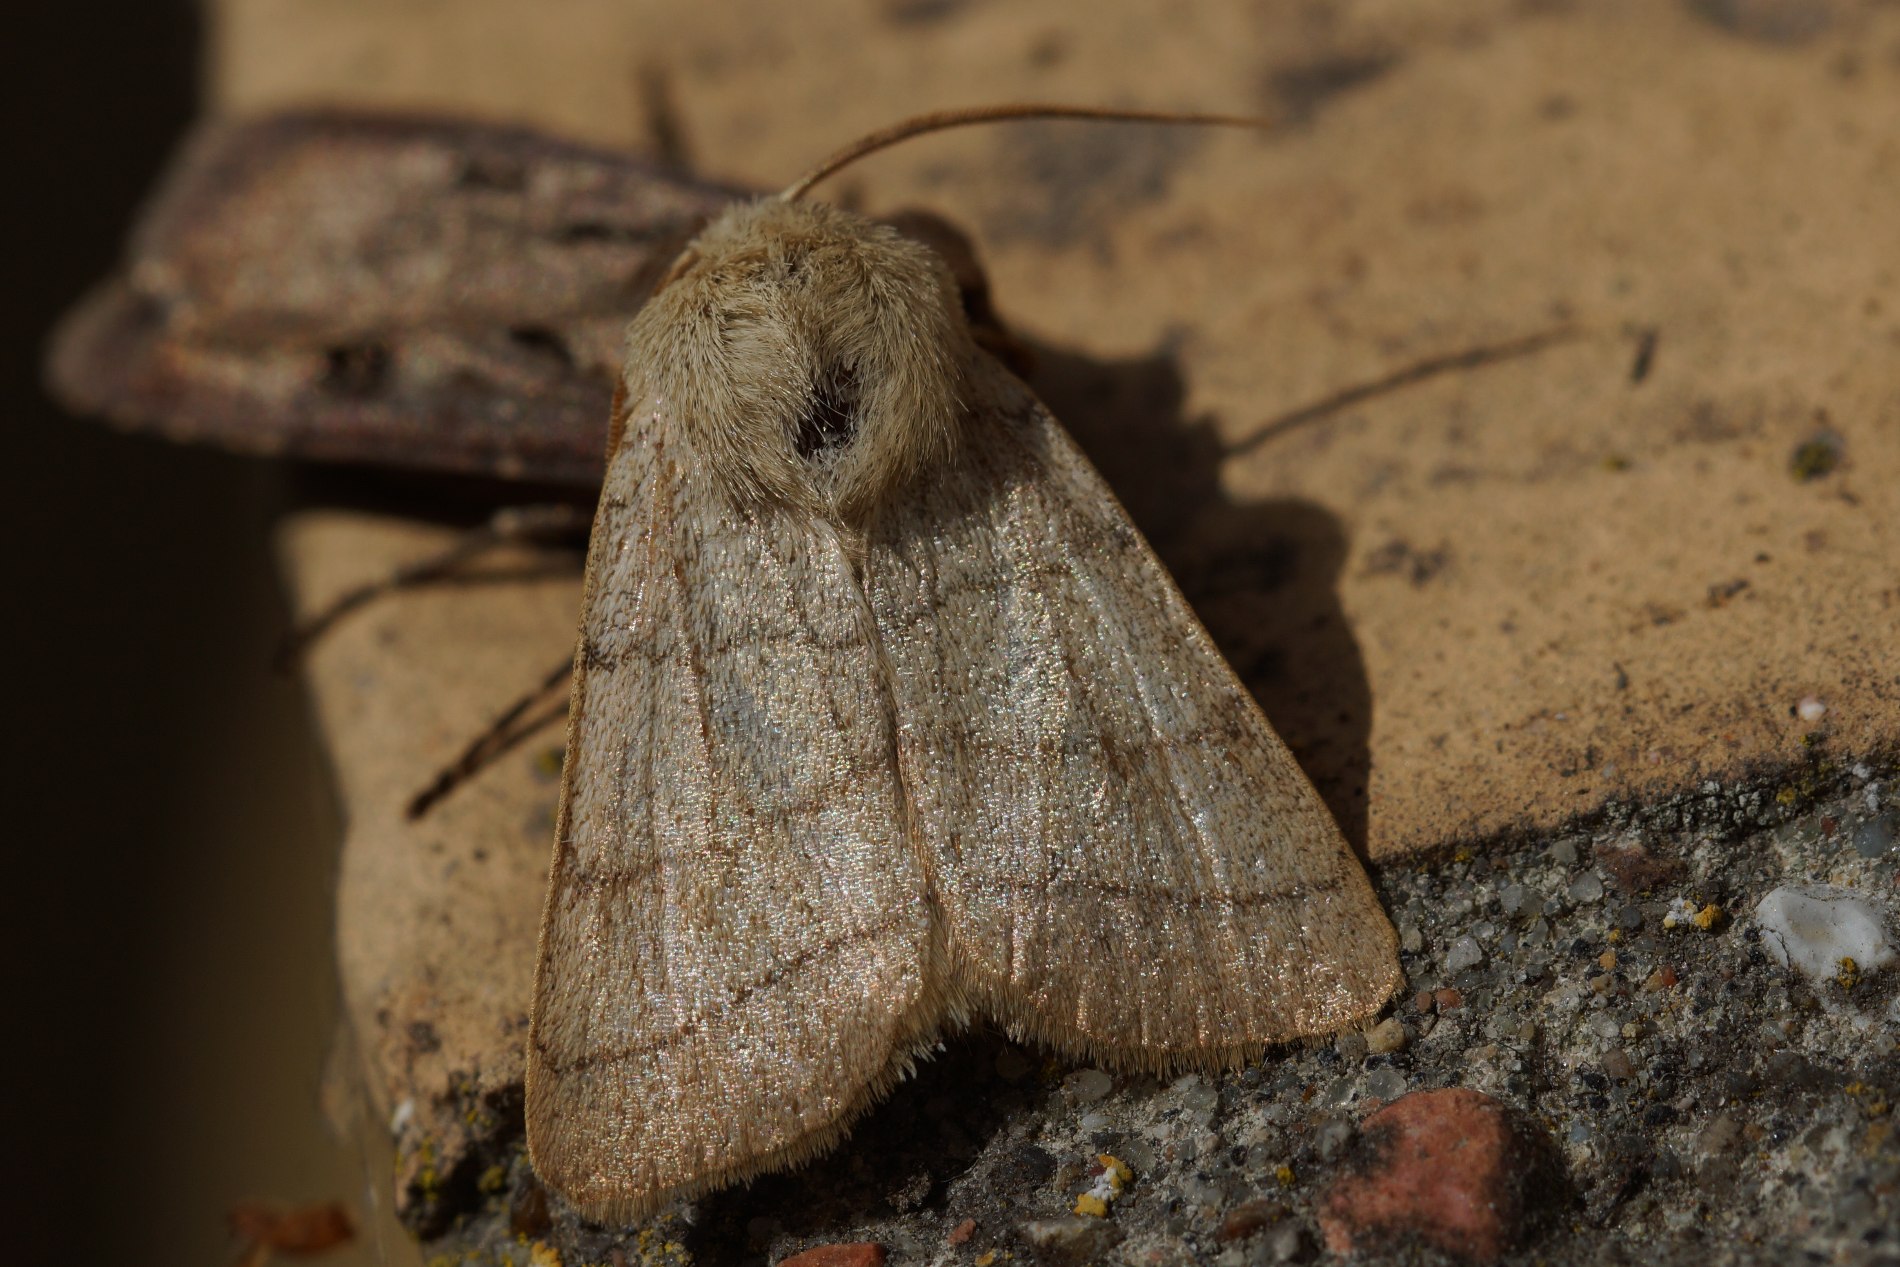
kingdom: Animalia
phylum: Arthropoda
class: Insecta
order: Lepidoptera
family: Noctuidae
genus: Charanyca
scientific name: Charanyca trigrammica
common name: Firestreget ugle
